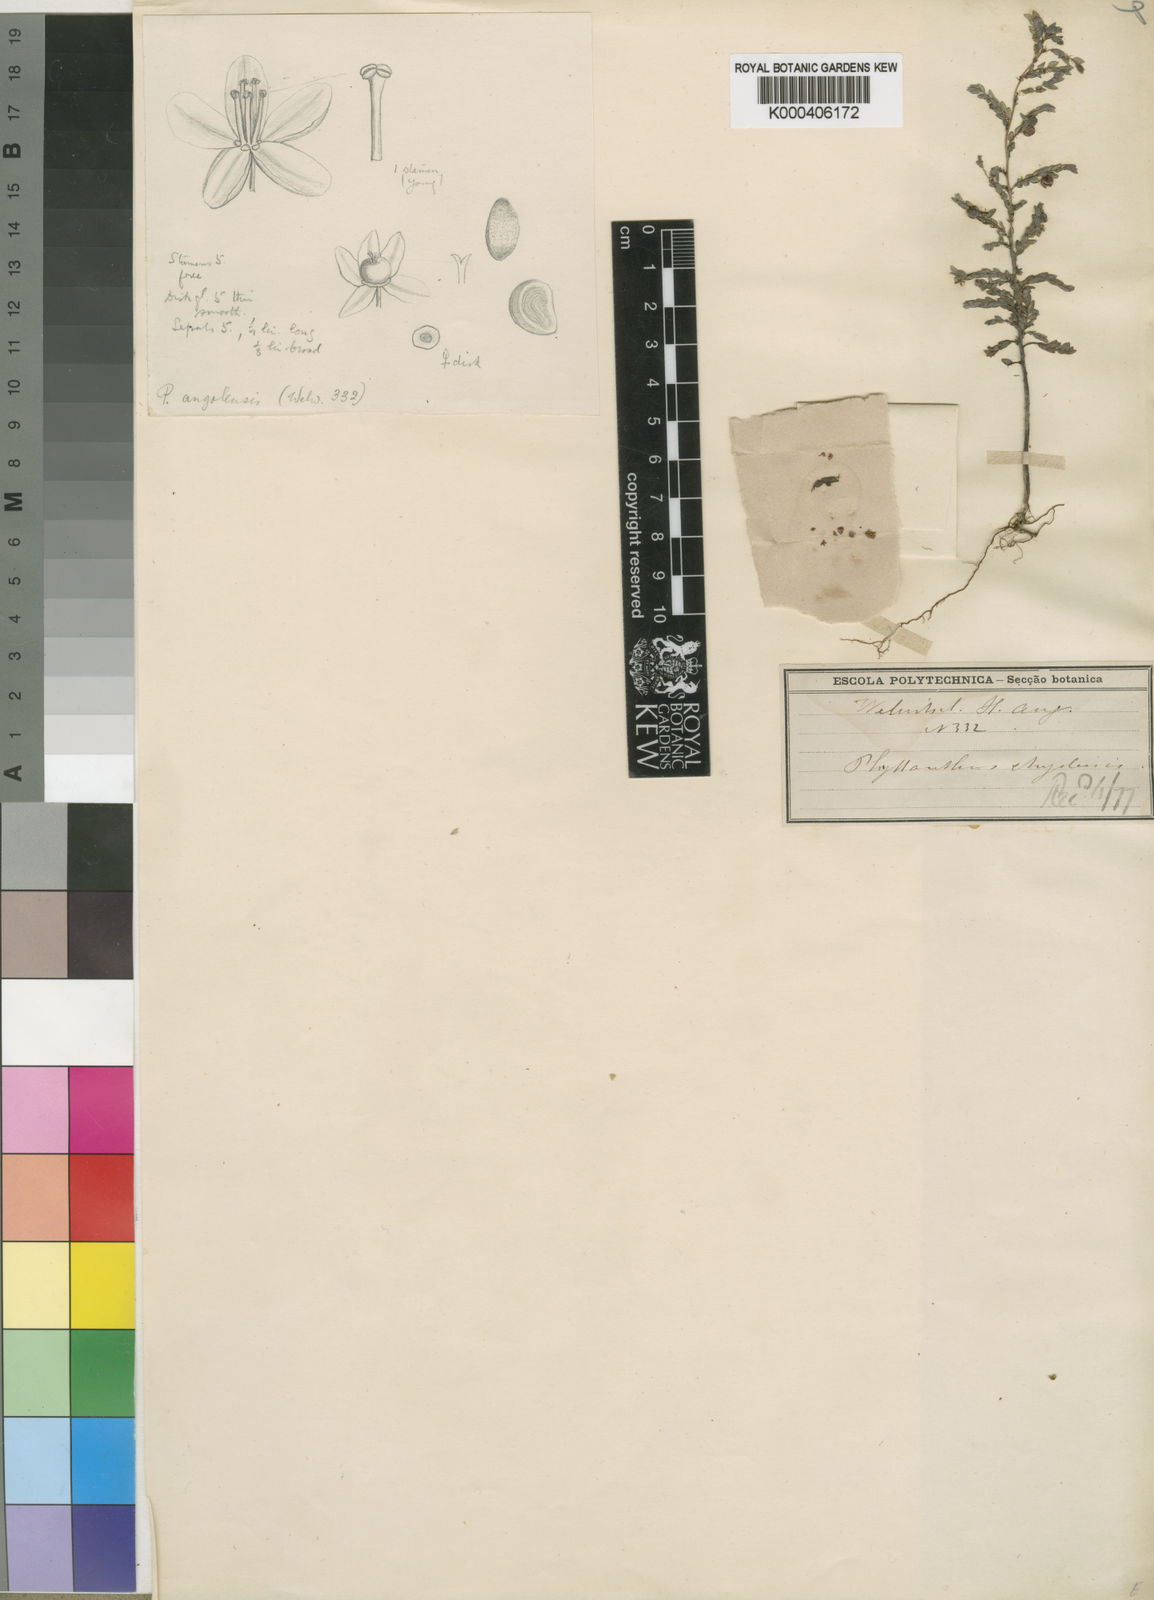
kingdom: Plantae
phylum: Tracheophyta
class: Magnoliopsida
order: Malpighiales
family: Phyllanthaceae
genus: Phyllanthus
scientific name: Phyllanthus
